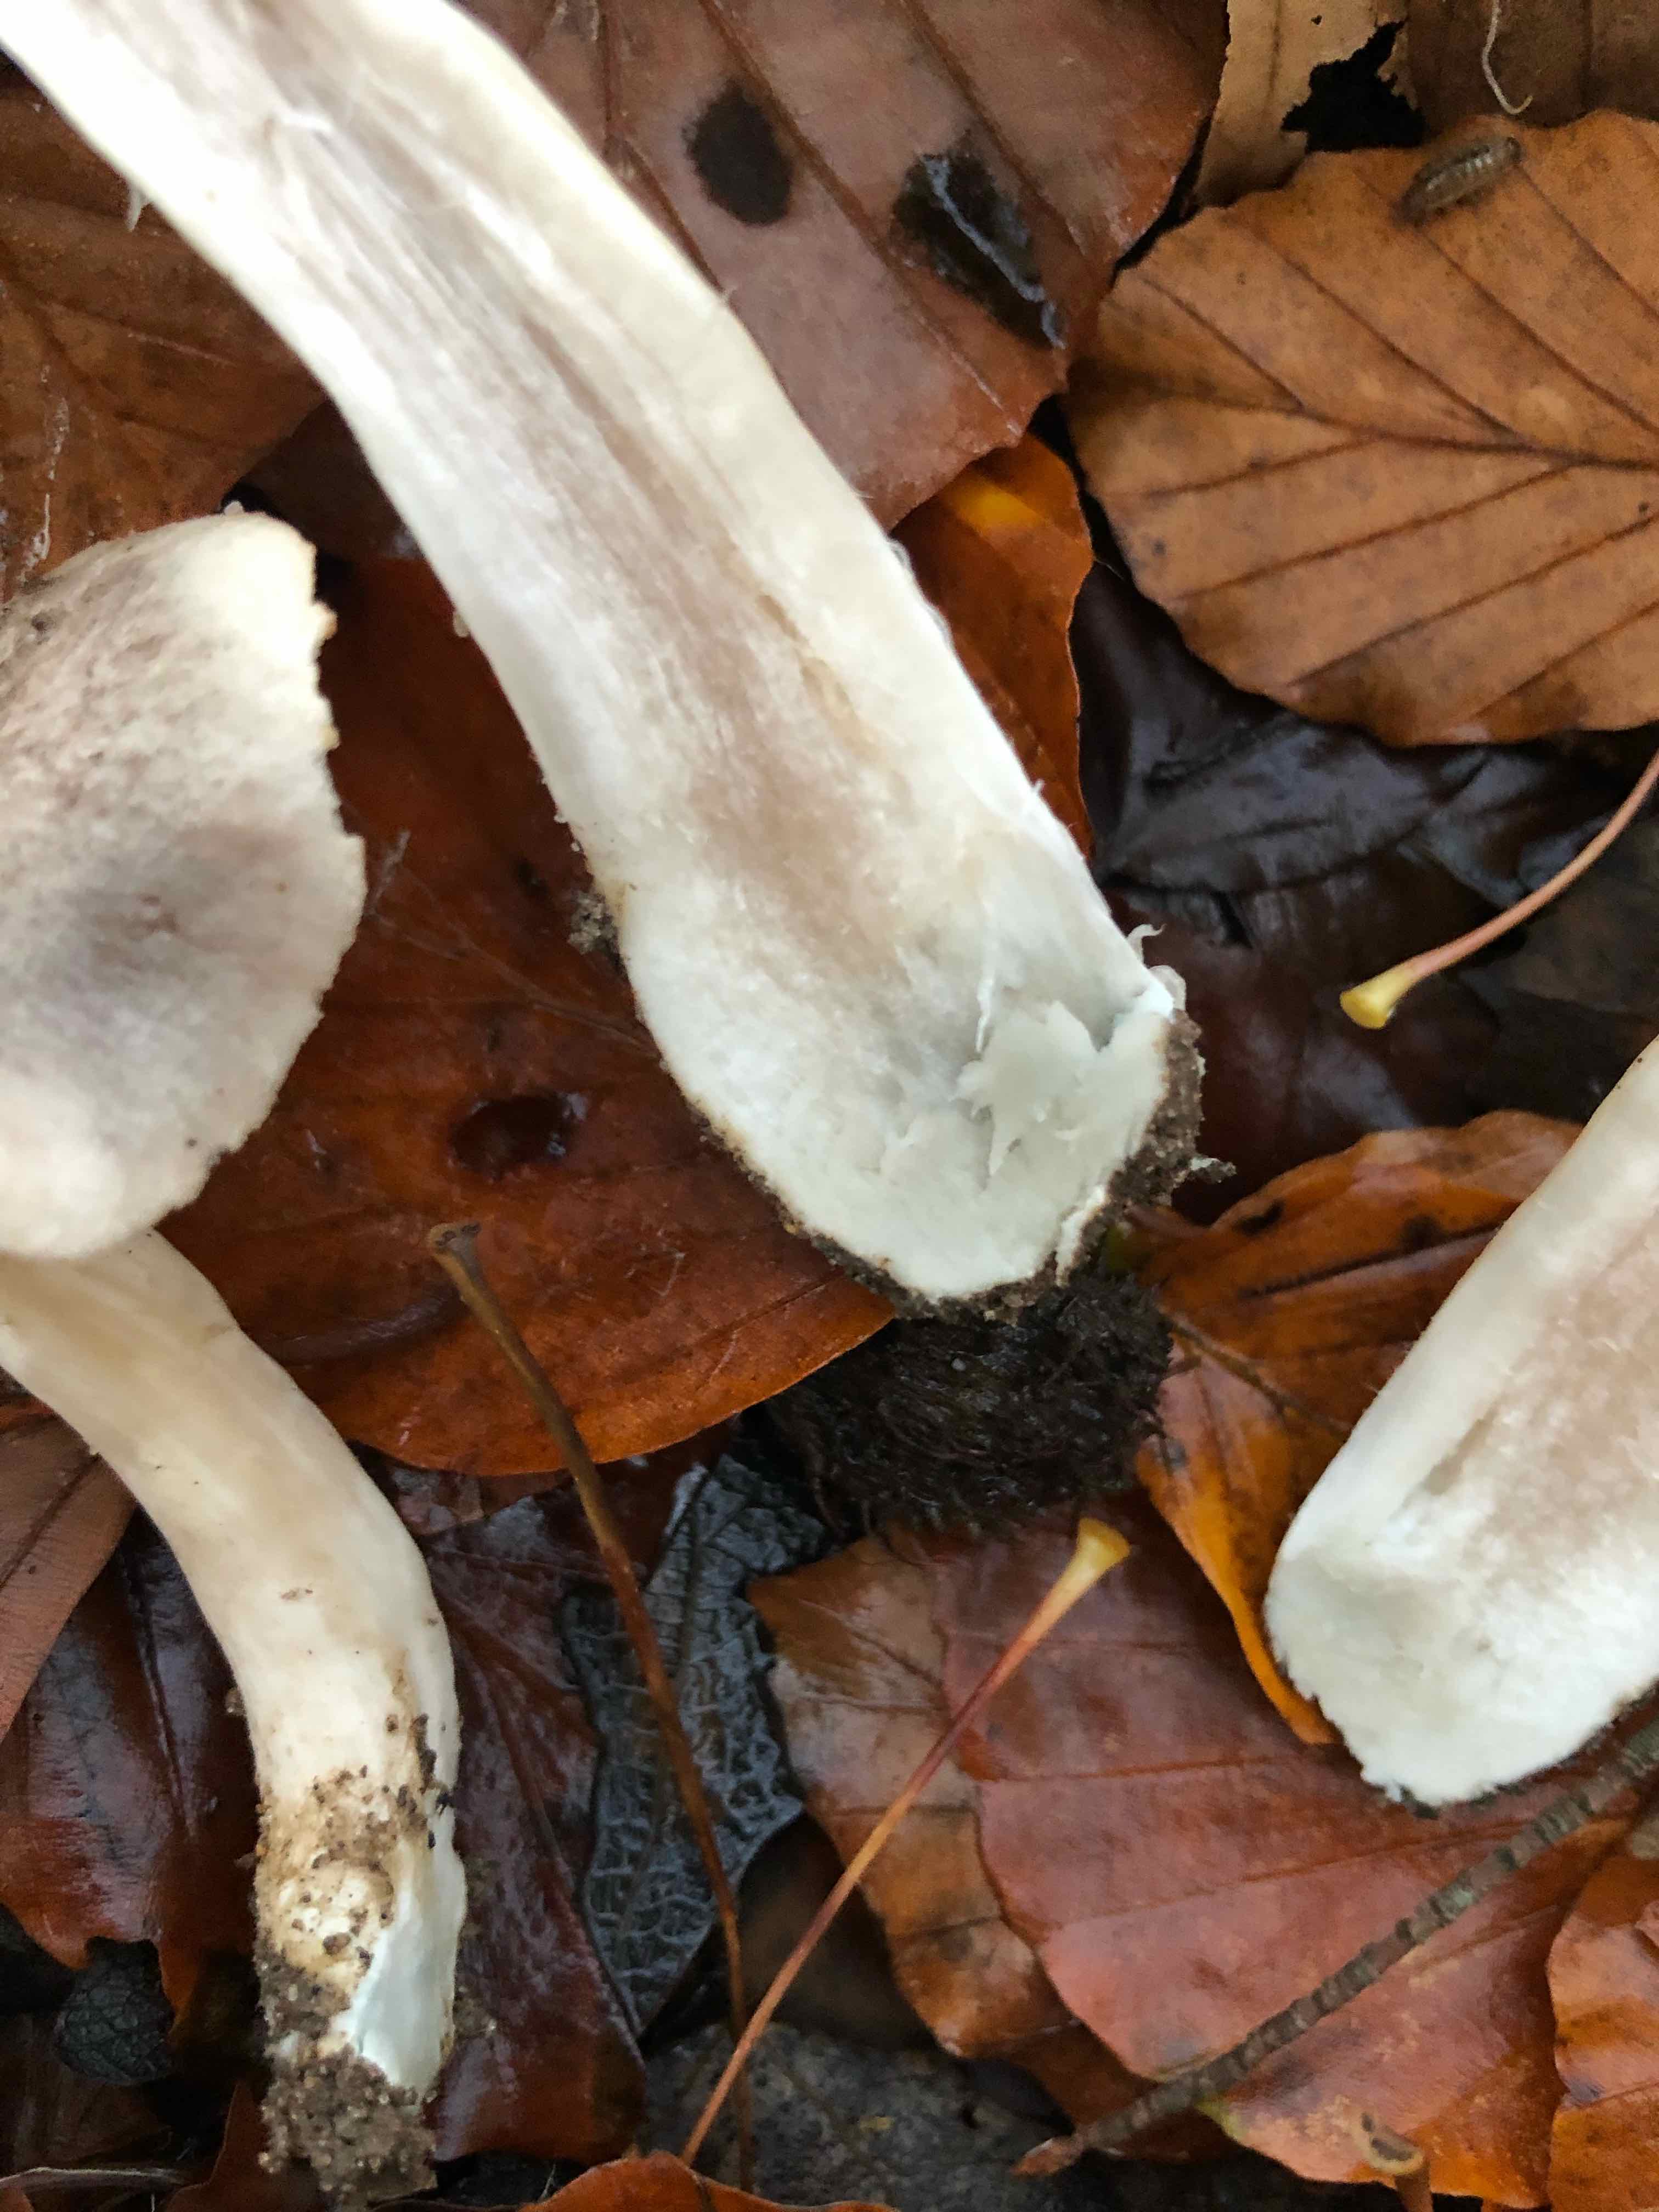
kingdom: Fungi
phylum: Basidiomycota
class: Agaricomycetes
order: Agaricales
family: Tricholomataceae
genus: Tricholoma
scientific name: Tricholoma orirubens
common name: rødbladet ridderhat
